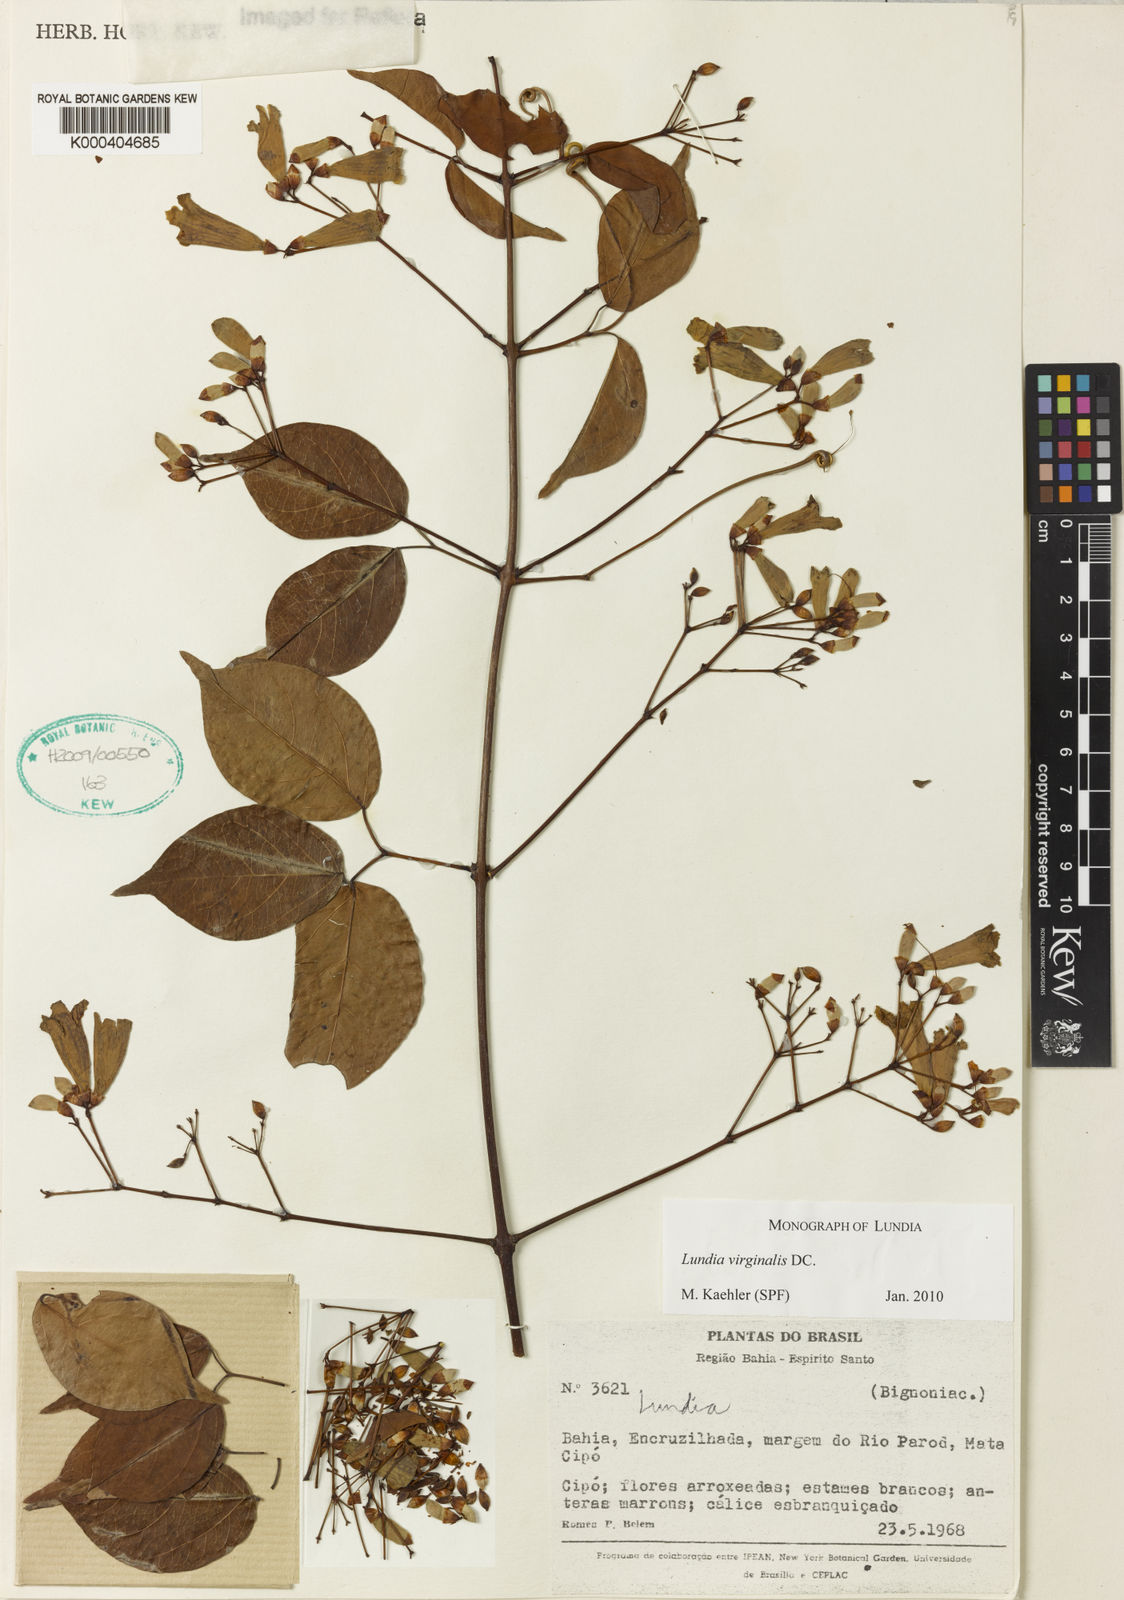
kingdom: Plantae
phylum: Tracheophyta
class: Magnoliopsida
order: Lamiales
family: Bignoniaceae
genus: Lundia
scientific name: Lundia virginalis
